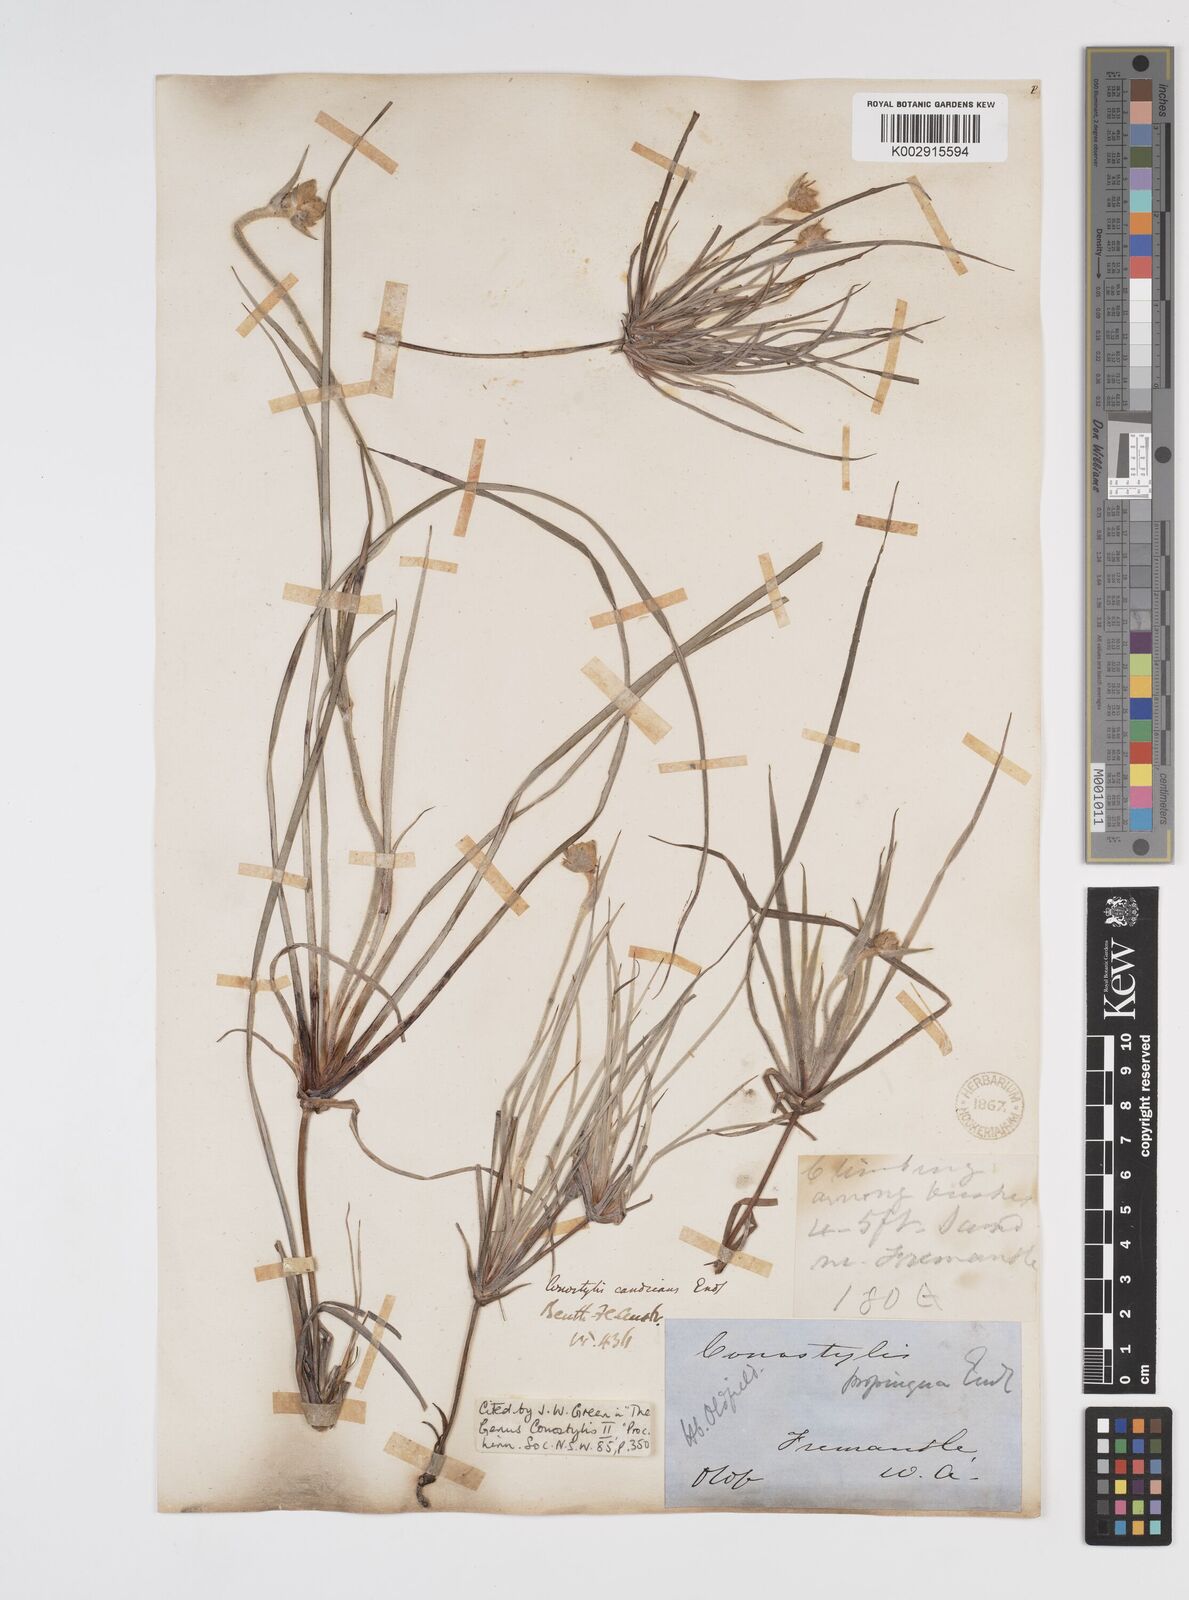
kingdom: Plantae
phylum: Tracheophyta
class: Liliopsida
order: Commelinales
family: Haemodoraceae
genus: Conostylis
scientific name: Conostylis candicans
